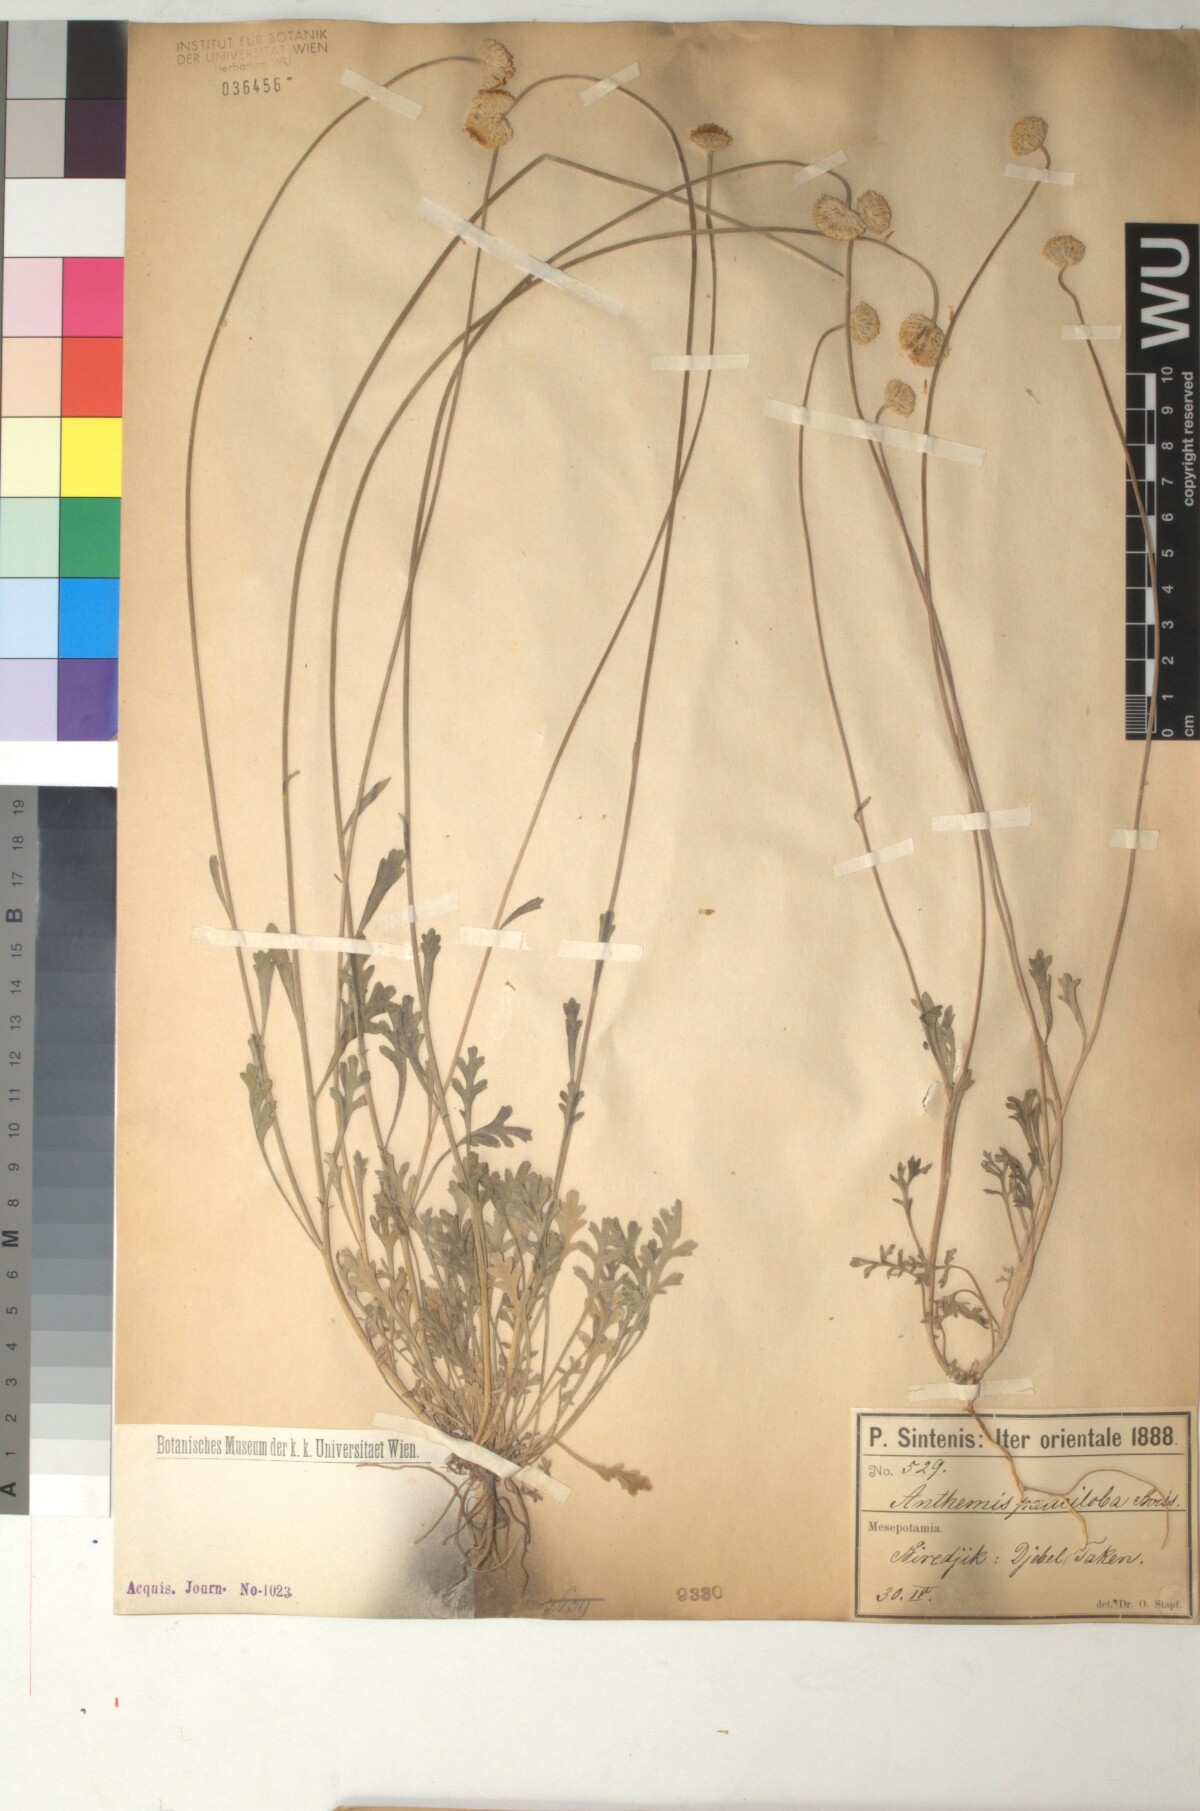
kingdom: Plantae
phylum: Tracheophyta
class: Magnoliopsida
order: Asterales
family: Asteraceae
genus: Anthemis
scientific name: Anthemis pauciloba
